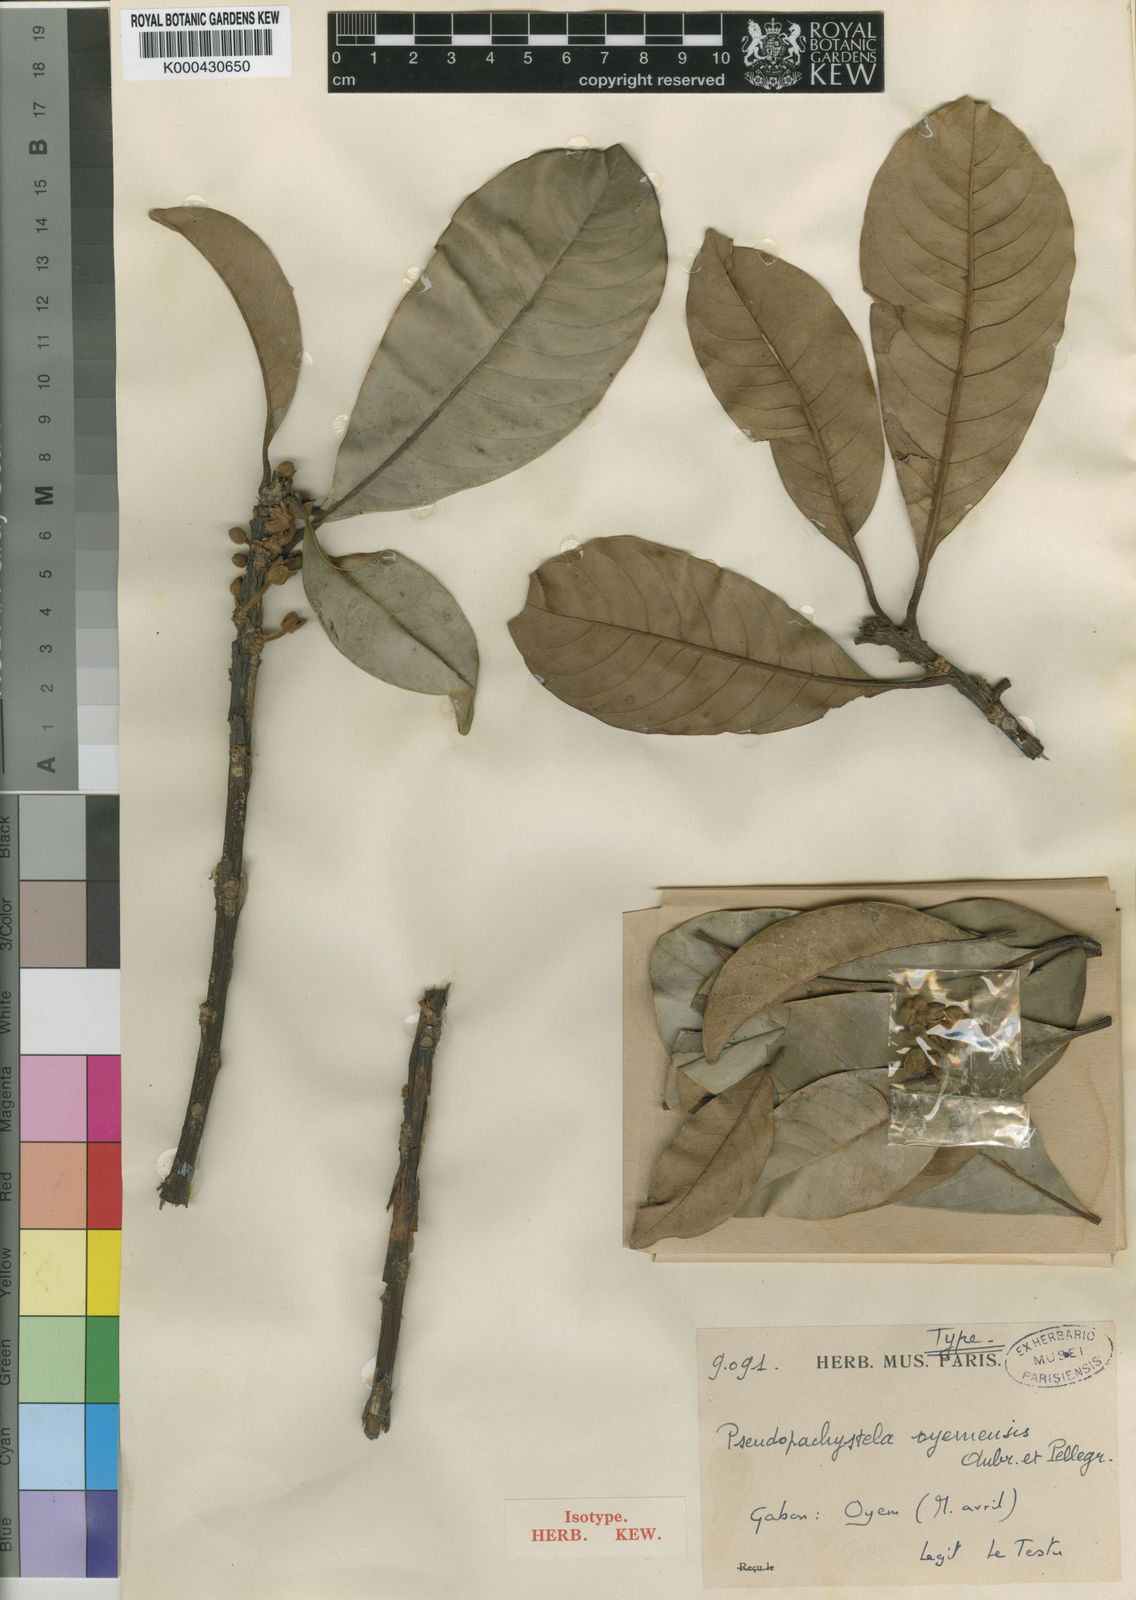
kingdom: Plantae
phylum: Tracheophyta
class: Magnoliopsida
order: Ericales
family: Sapotaceae
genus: Synsepalum
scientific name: Synsepalum
